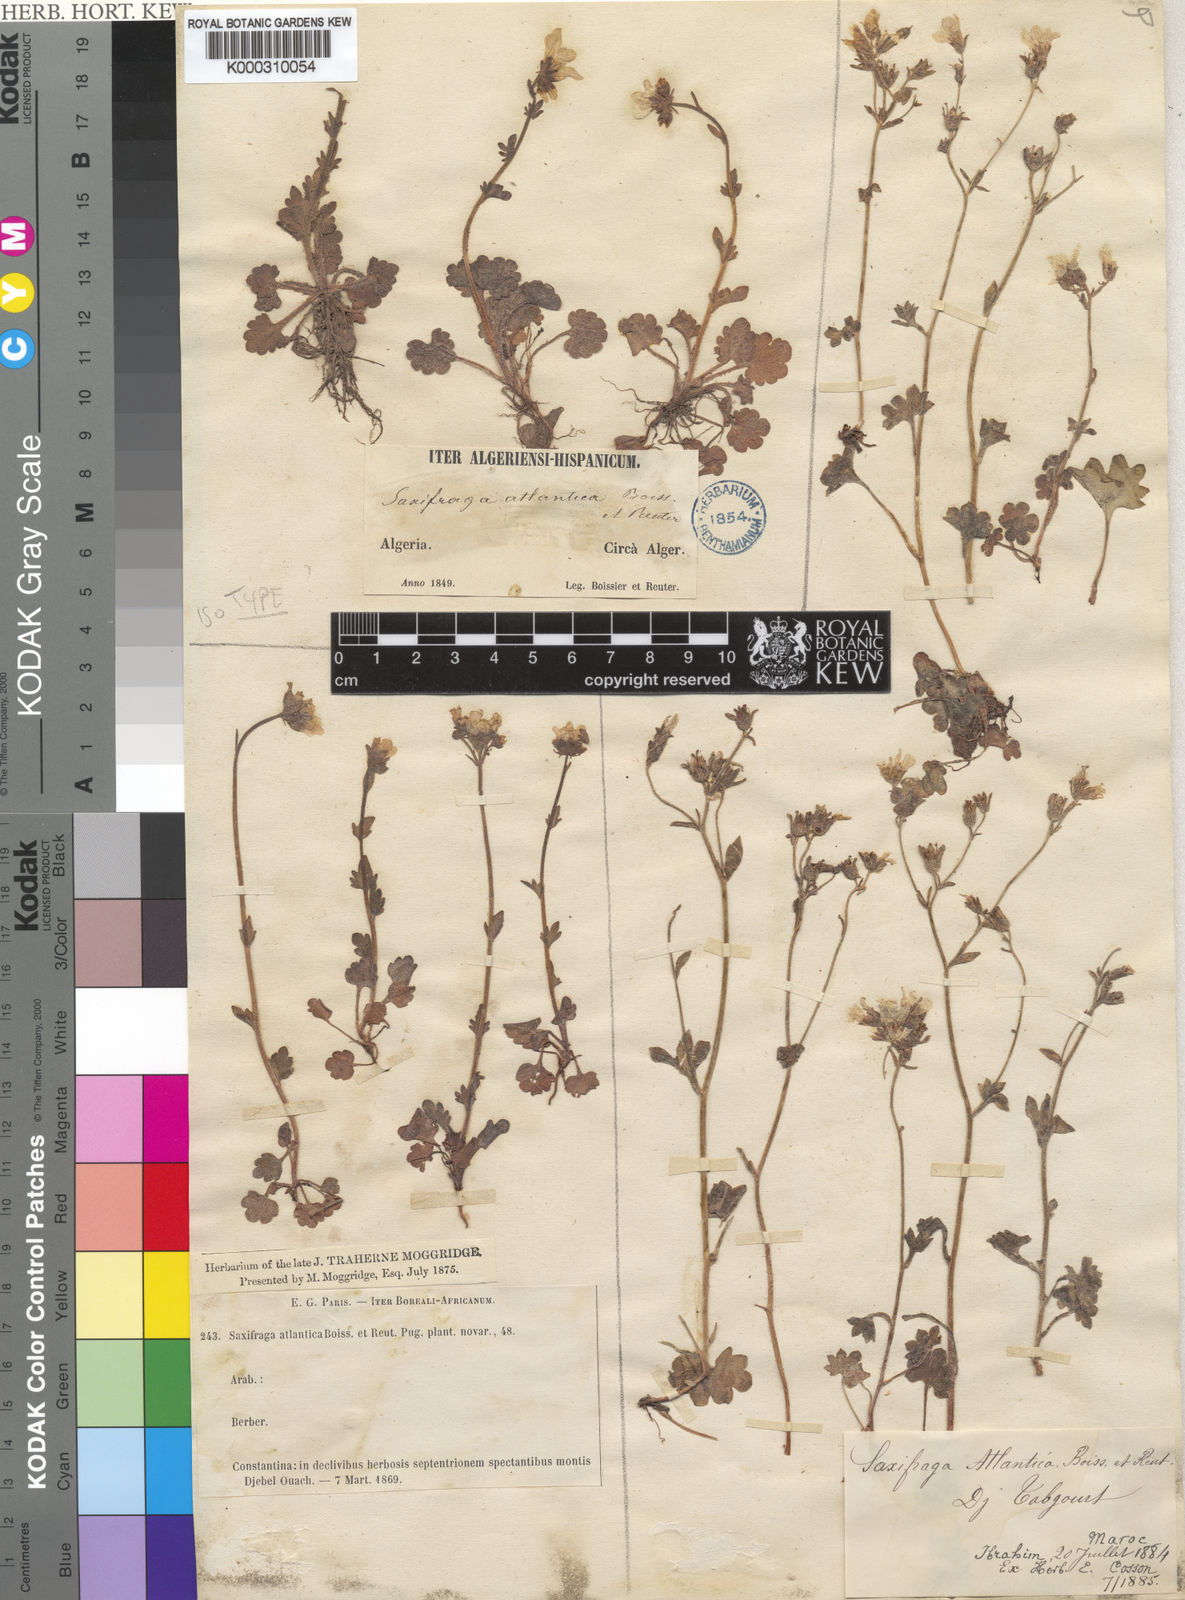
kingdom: Plantae
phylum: Tracheophyta
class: Magnoliopsida
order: Saxifragales
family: Saxifragaceae
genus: Saxifraga
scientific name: Saxifraga carpetana
